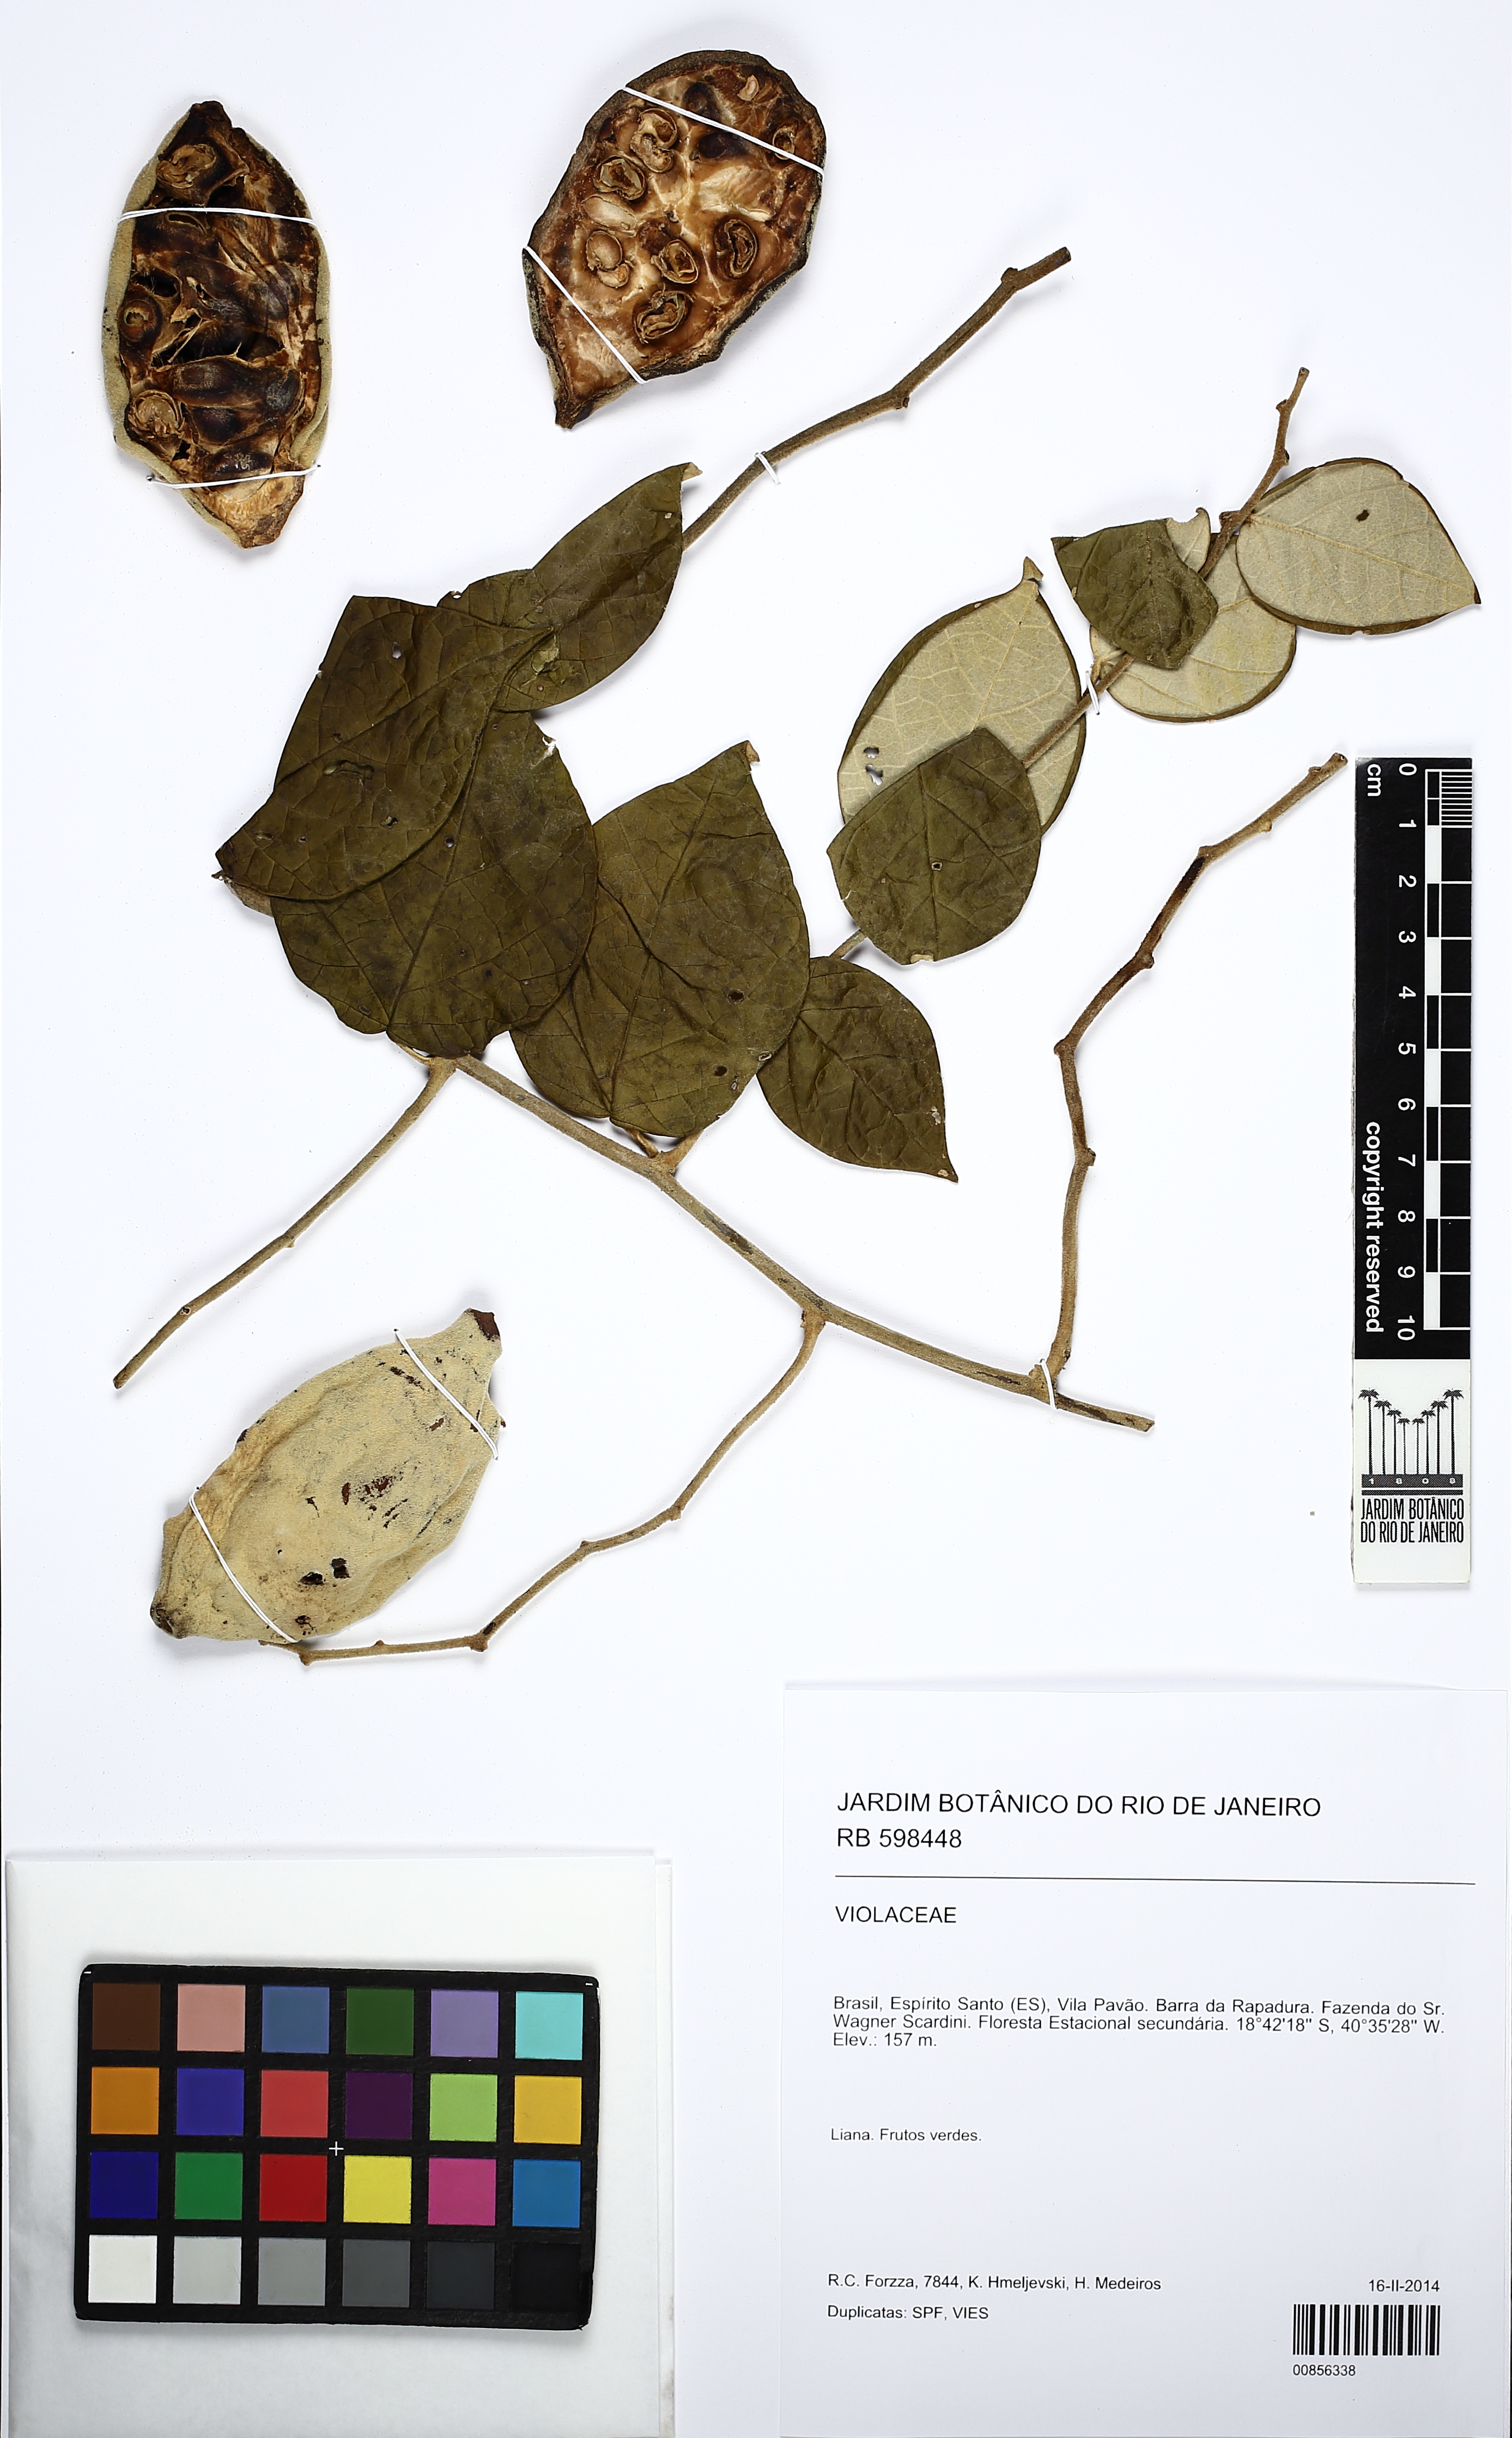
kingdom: Plantae
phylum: Tracheophyta
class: Magnoliopsida
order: Malpighiales
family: Violaceae
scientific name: Violaceae
